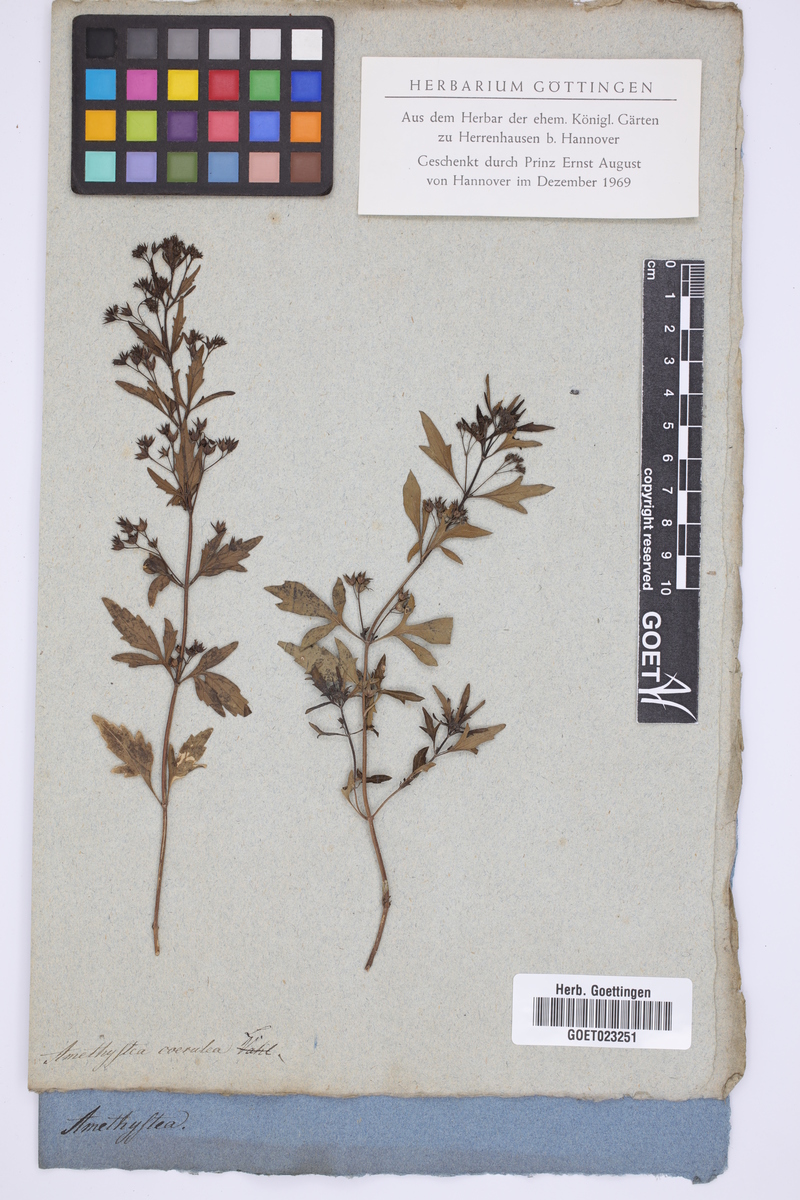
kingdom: Plantae
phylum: Tracheophyta
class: Magnoliopsida
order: Lamiales
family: Lamiaceae
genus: Amethystea
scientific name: Amethystea caerulea
